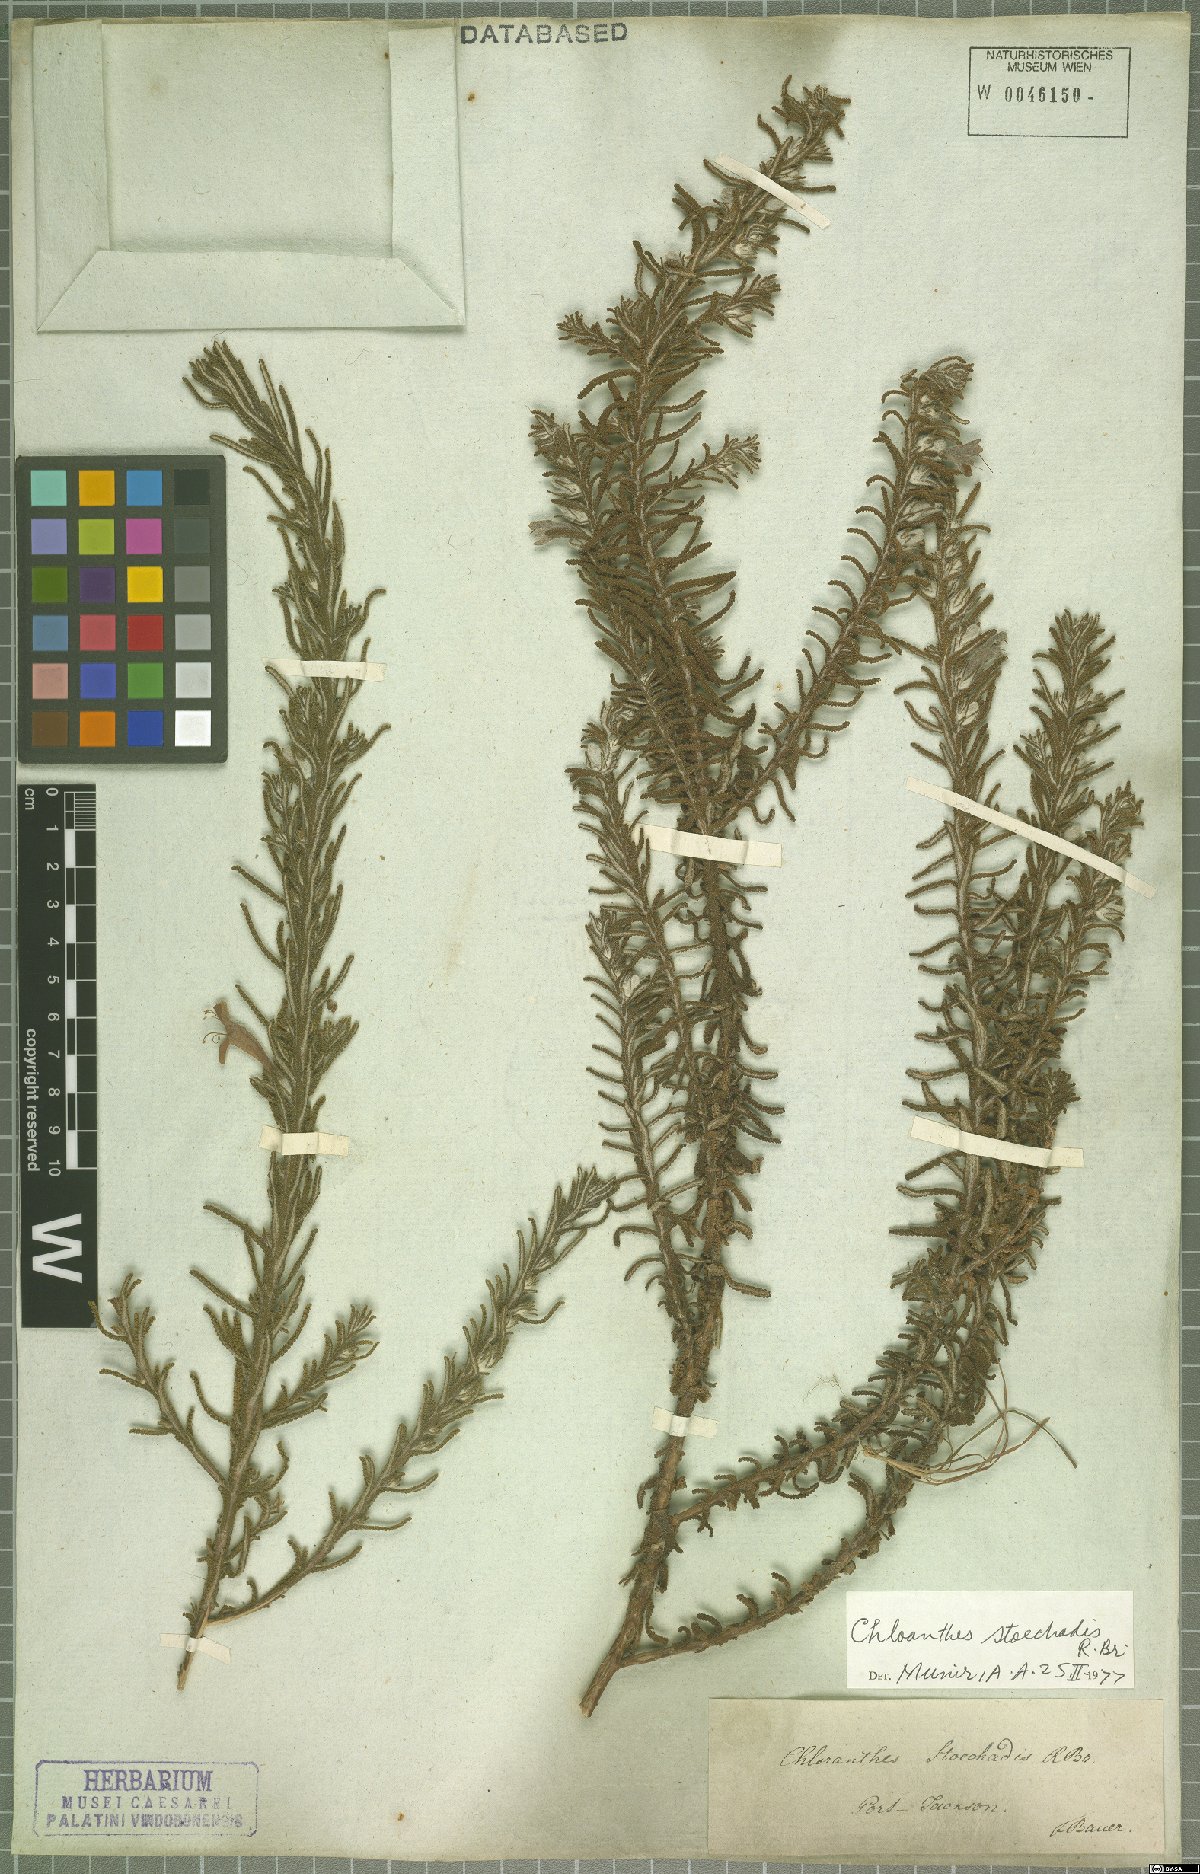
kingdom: Plantae
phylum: Tracheophyta
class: Magnoliopsida
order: Lamiales
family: Lamiaceae
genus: Chloanthes
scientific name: Chloanthes stoechadis
